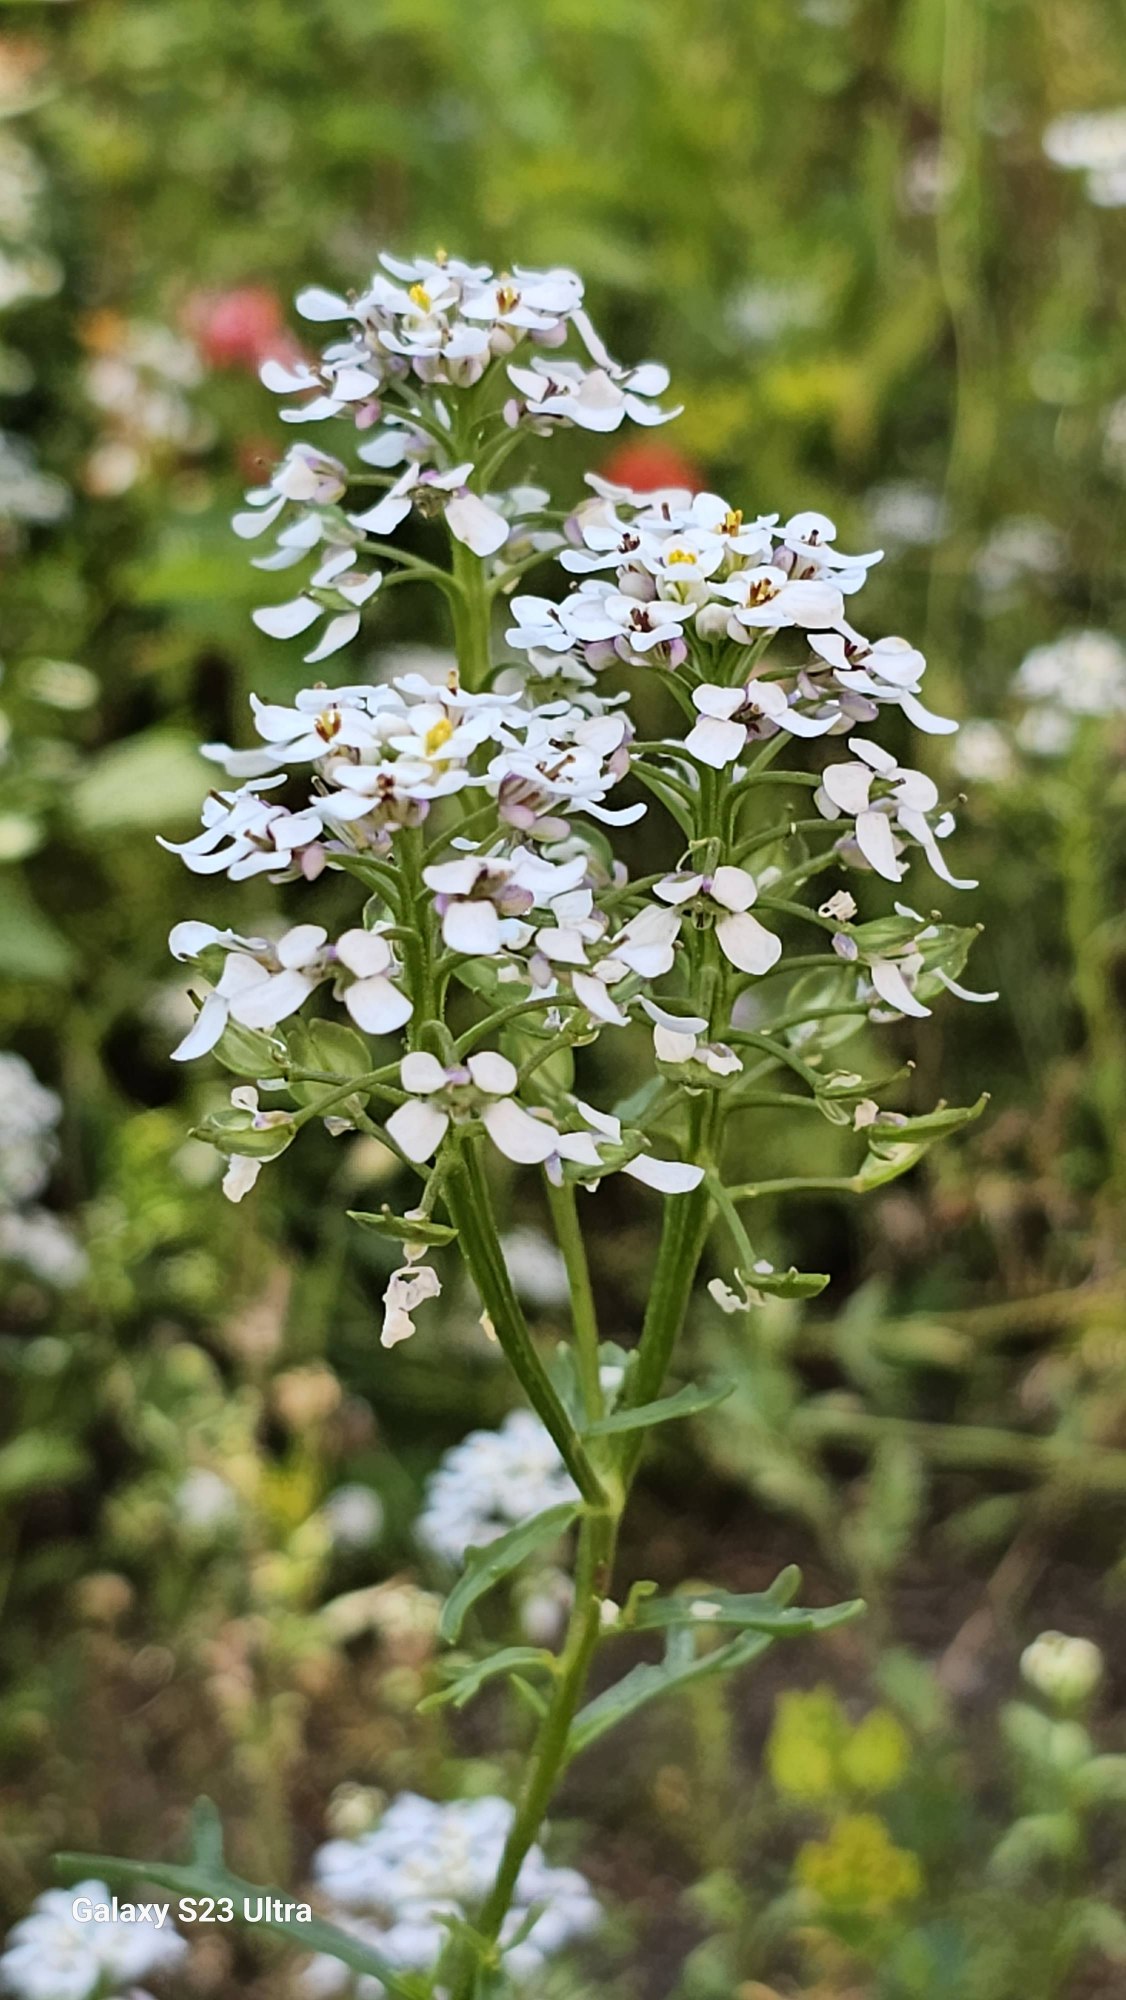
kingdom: Plantae
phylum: Tracheophyta
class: Magnoliopsida
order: Brassicales
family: Brassicaceae
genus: Iberis
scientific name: Iberis amara
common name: Hvid sløjfeblomst
